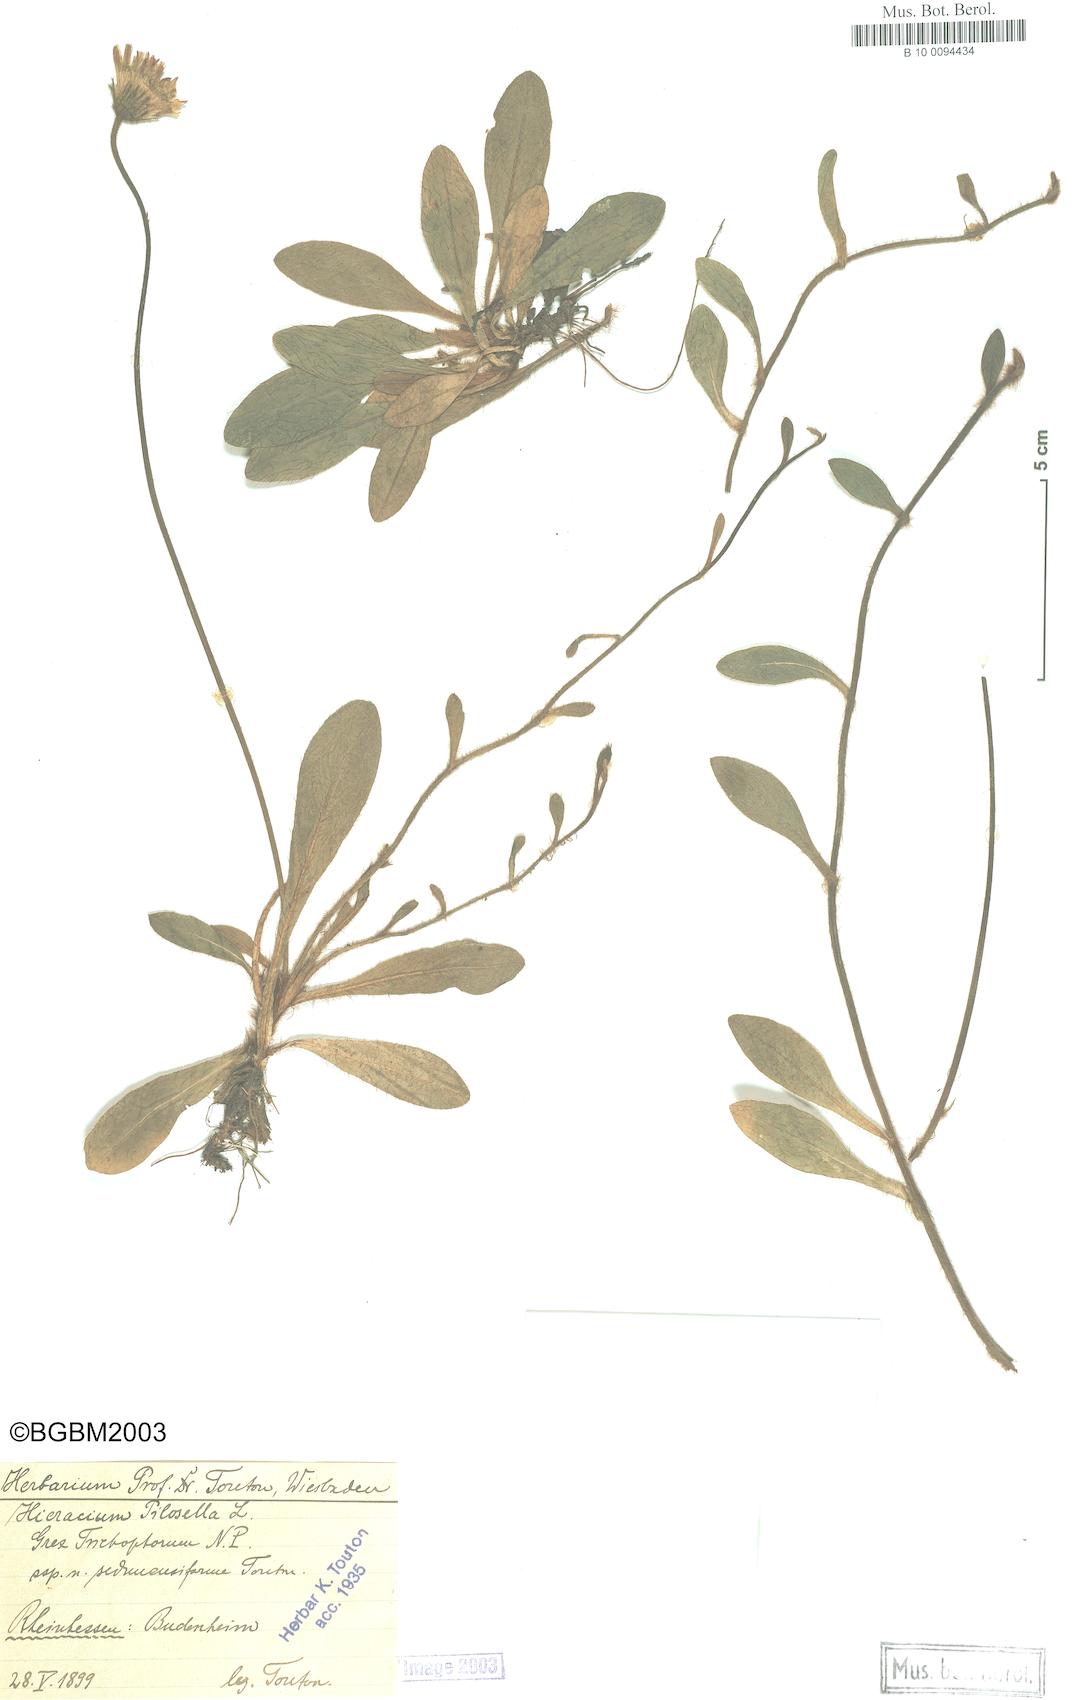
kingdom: Plantae
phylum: Tracheophyta
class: Magnoliopsida
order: Asterales
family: Asteraceae
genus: Pilosella
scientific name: Pilosella officinarum
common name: Mouse-ear hawkweed
